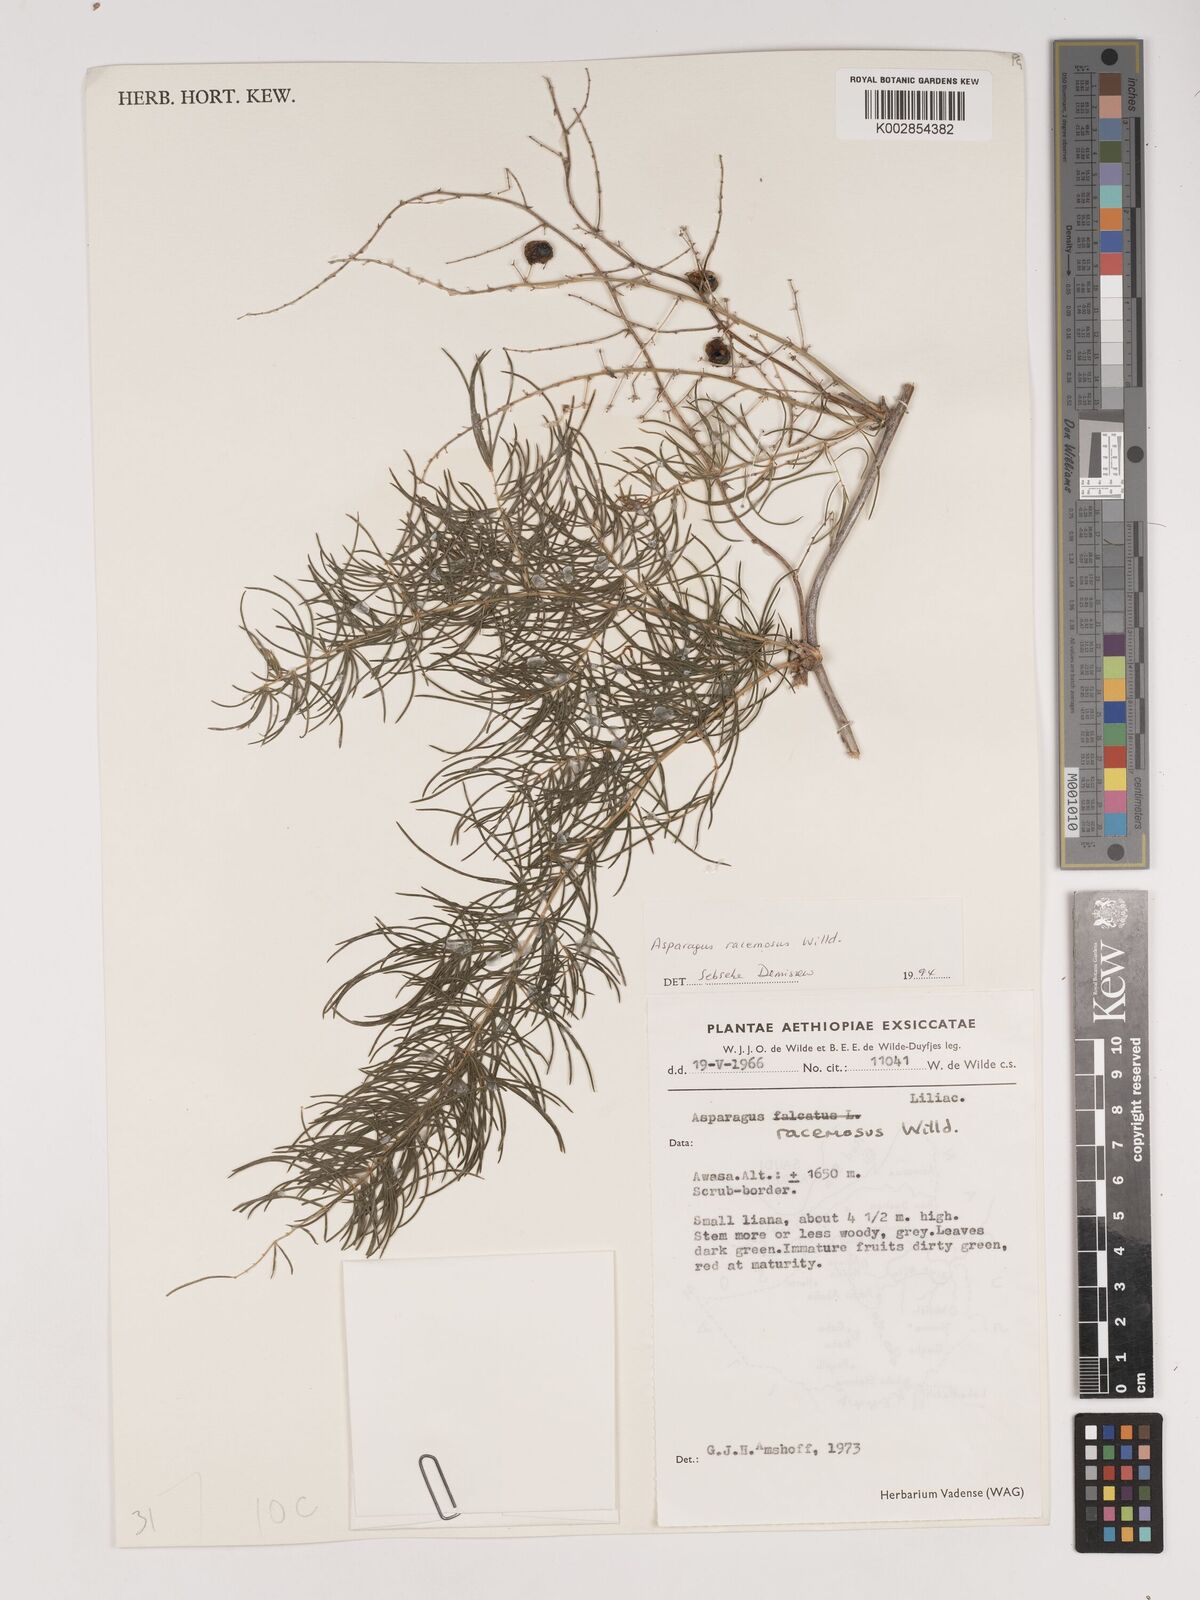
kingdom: Plantae
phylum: Tracheophyta
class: Liliopsida
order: Asparagales
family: Asparagaceae
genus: Asparagus
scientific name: Asparagus racemosus
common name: Asparagus-fern
